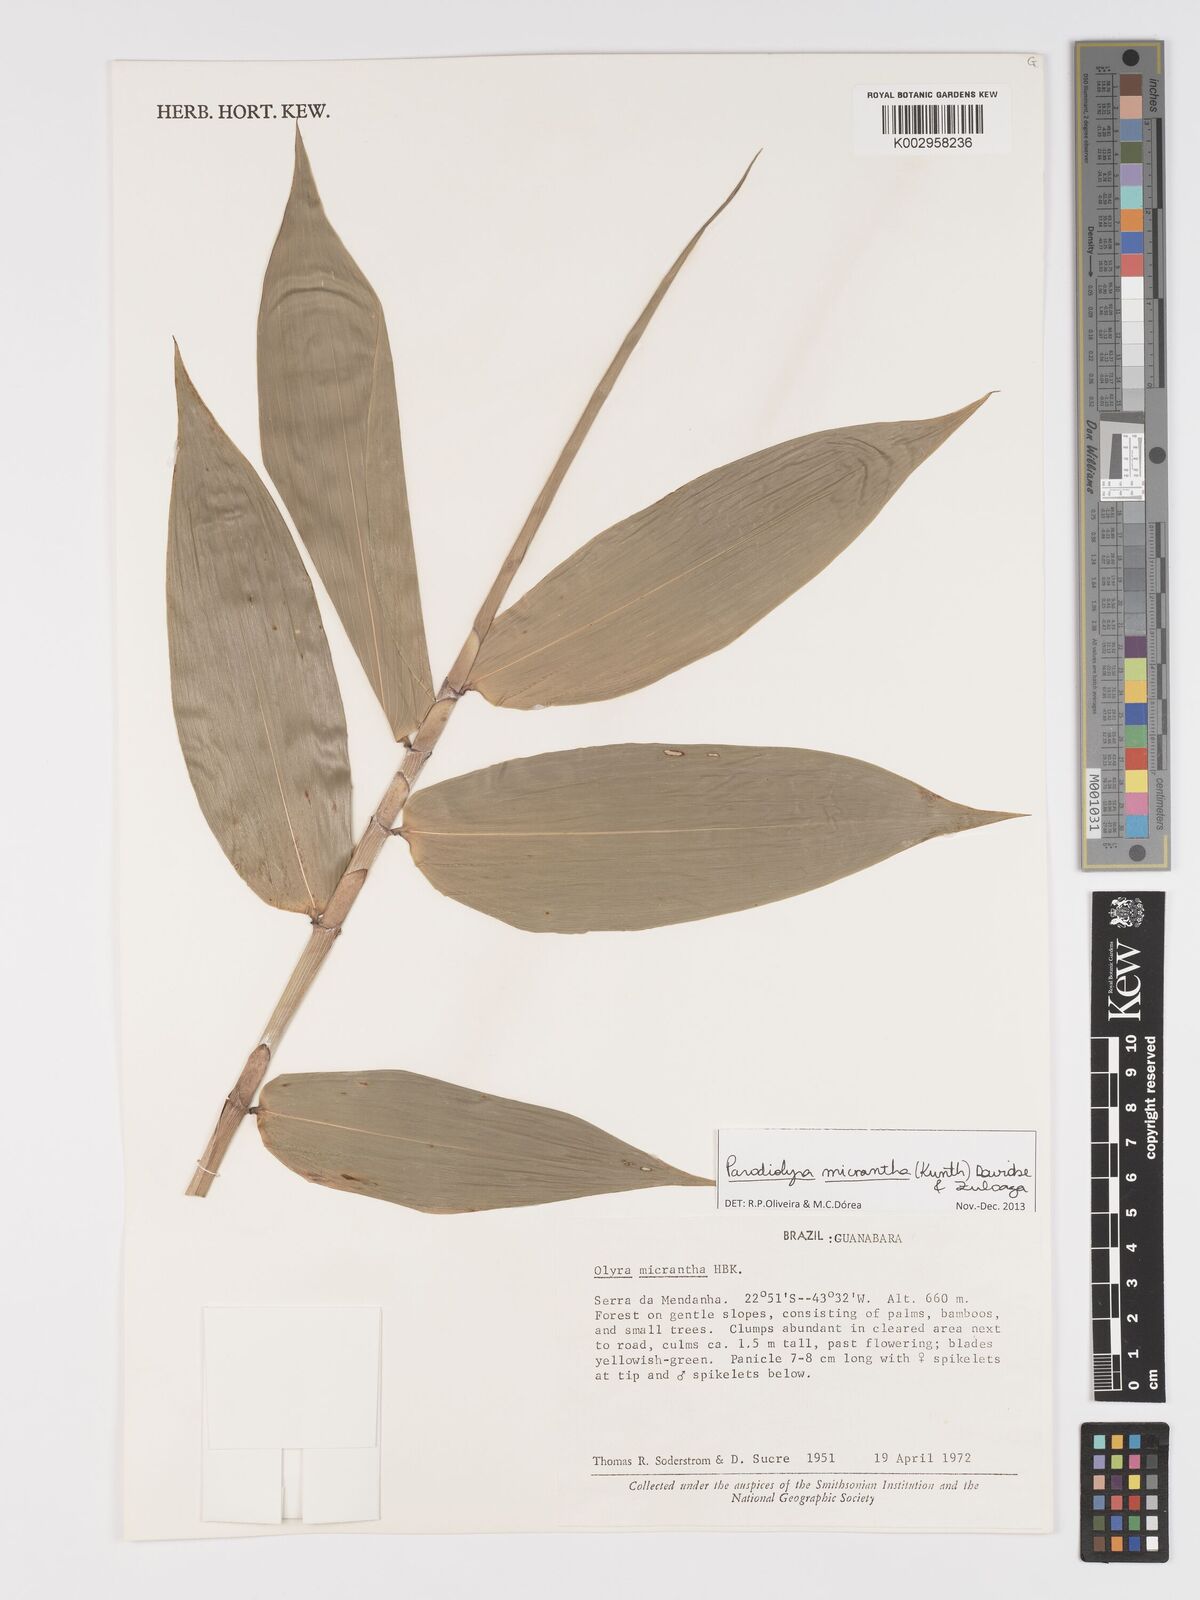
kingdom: Plantae
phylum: Tracheophyta
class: Liliopsida
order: Poales
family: Poaceae
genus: Taquara
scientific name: Taquara micrantha
